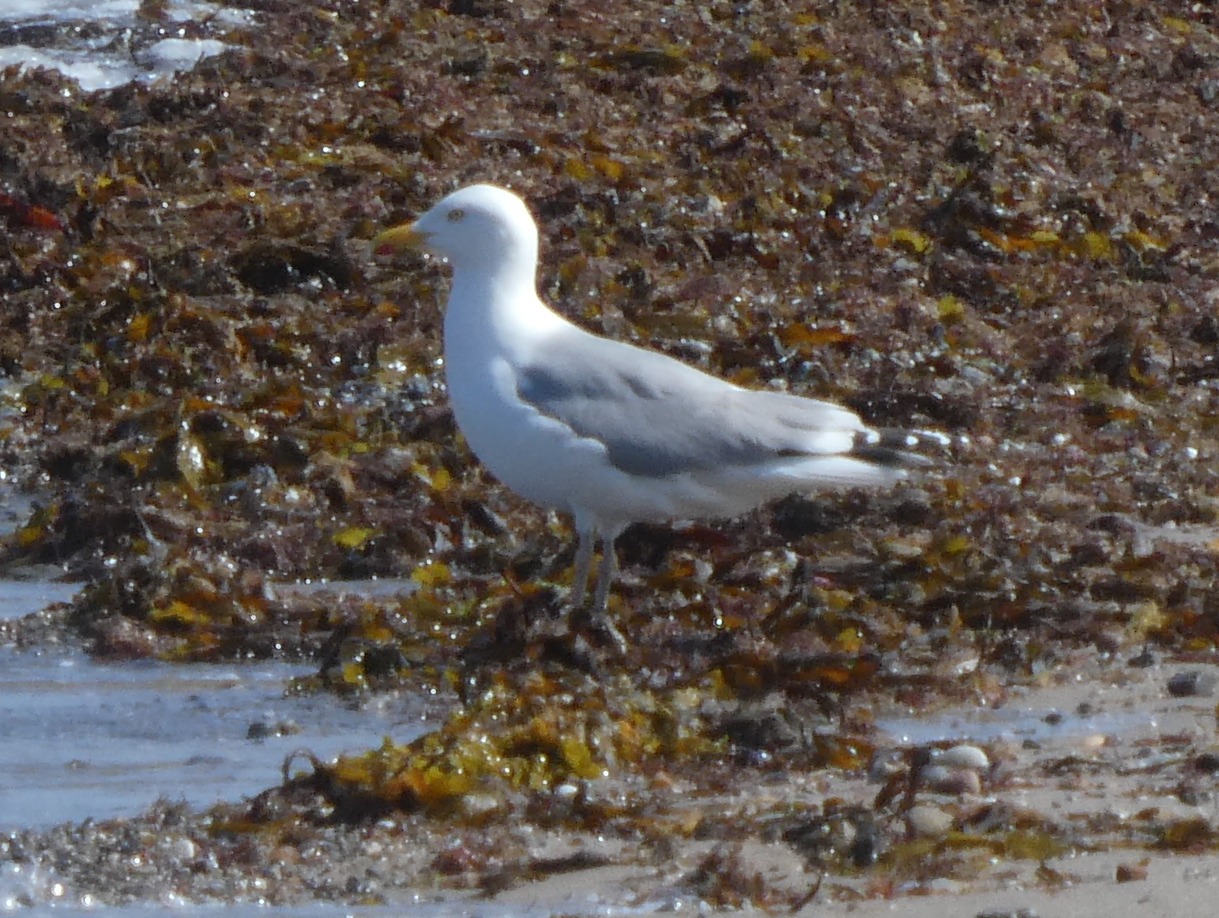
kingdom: Animalia
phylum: Chordata
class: Aves
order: Charadriiformes
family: Laridae
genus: Larus
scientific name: Larus argentatus
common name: Sølvmåge
